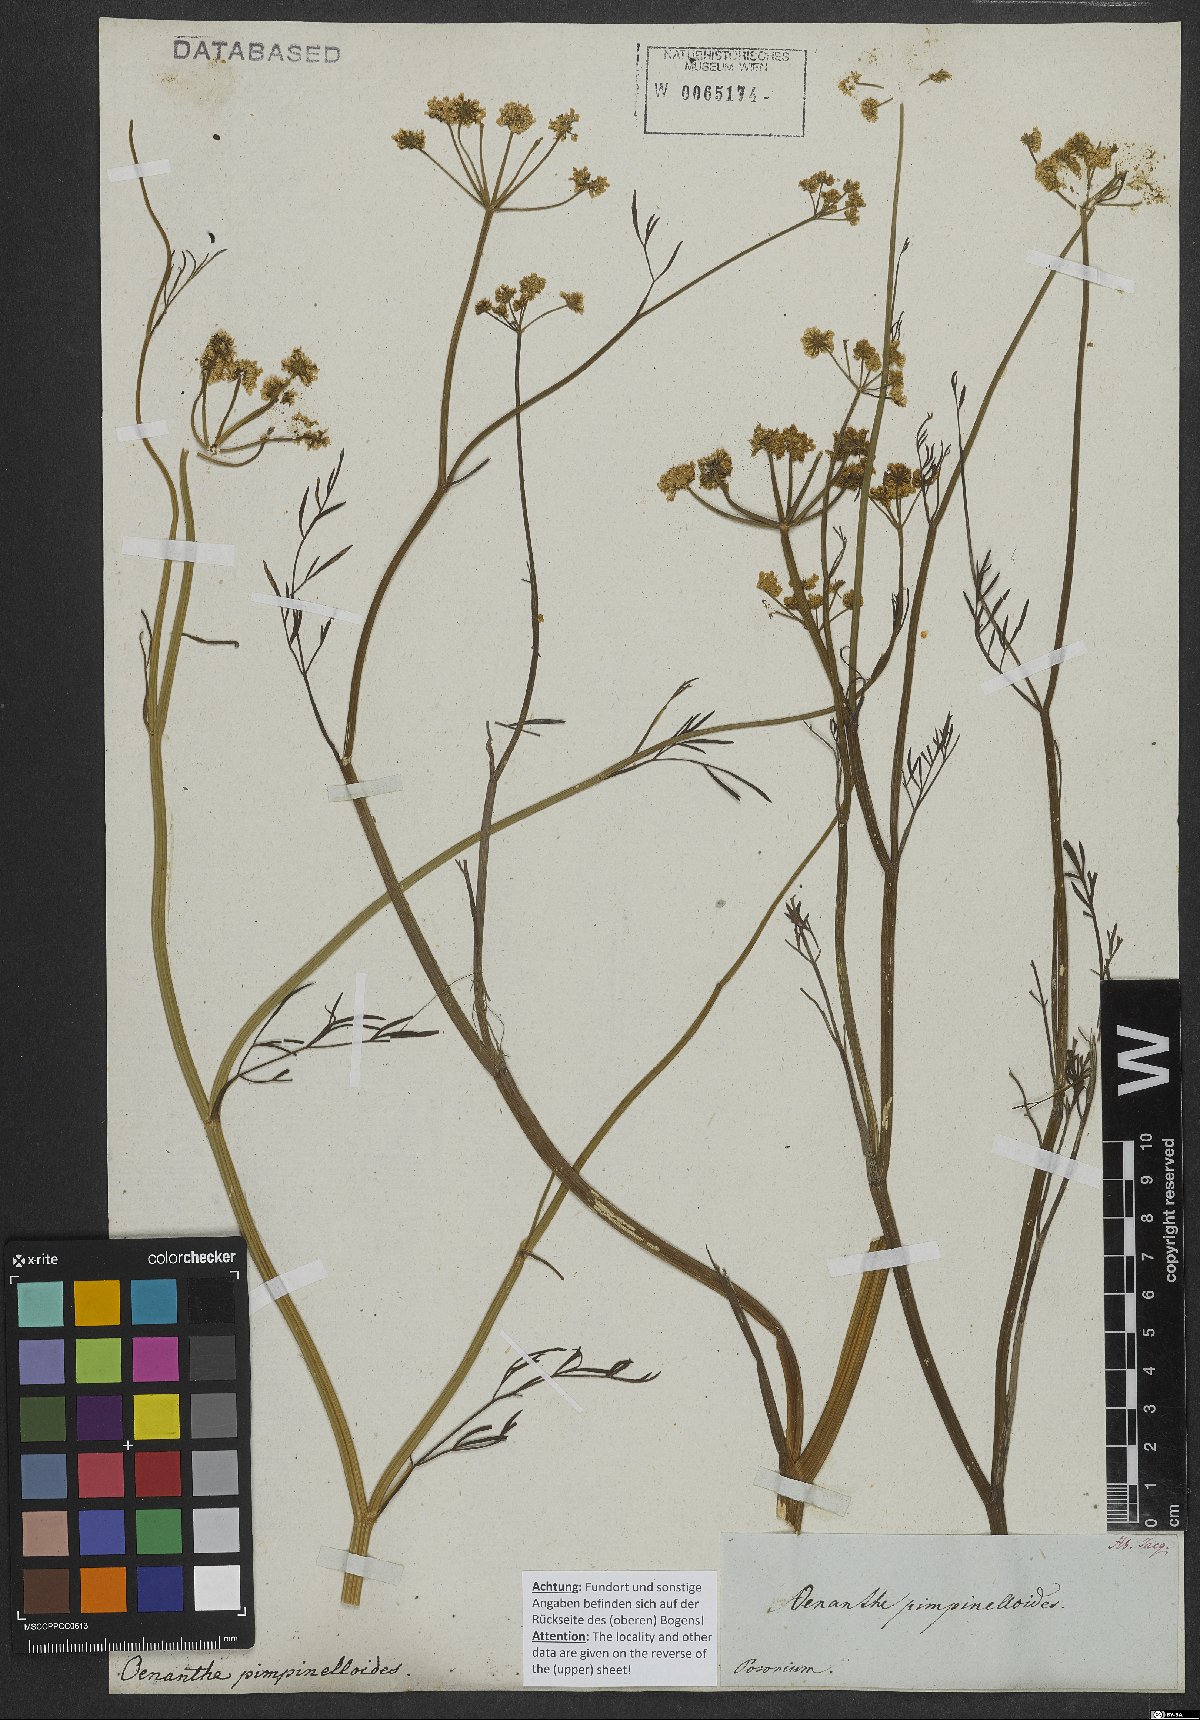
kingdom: Plantae
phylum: Tracheophyta
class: Magnoliopsida
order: Apiales
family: Apiaceae
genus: Oenanthe
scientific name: Oenanthe pimpinelloides
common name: Corky-fruited water-dropwort
